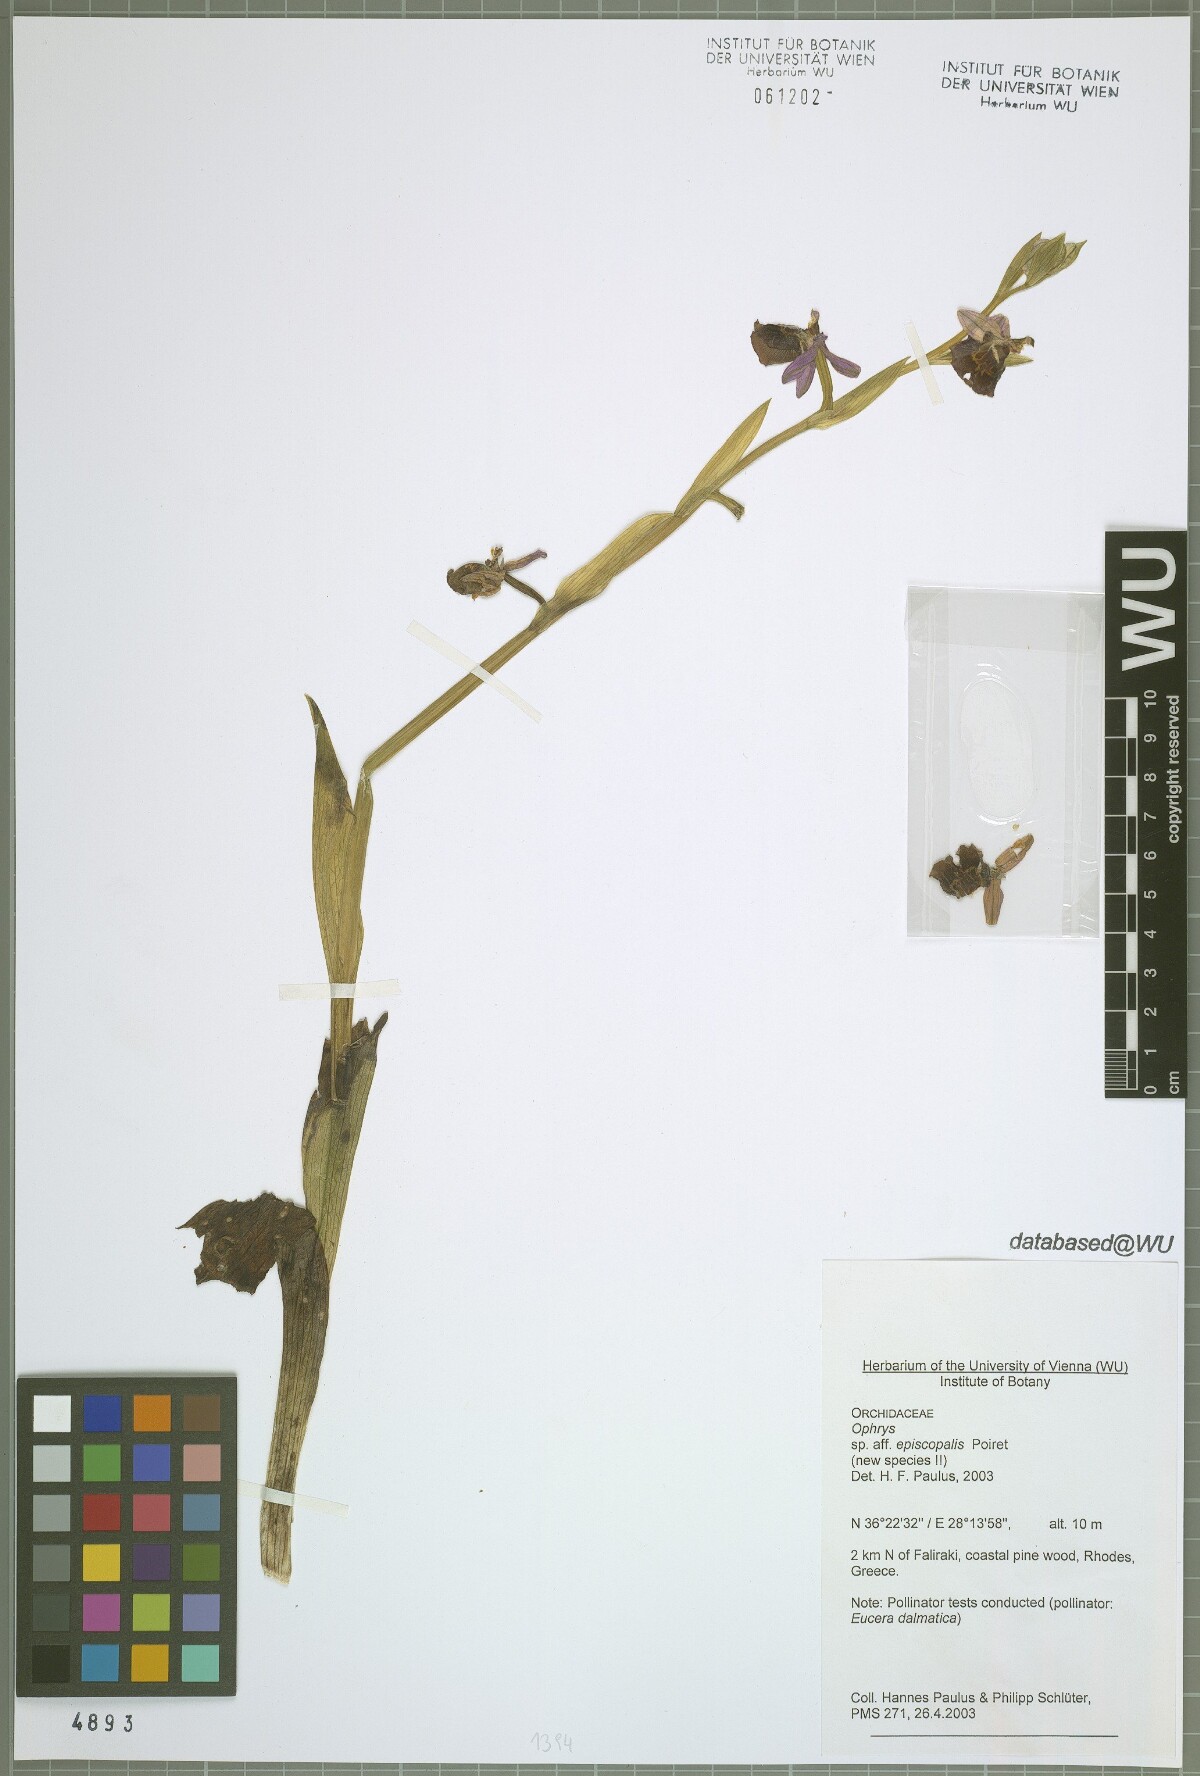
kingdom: Plantae
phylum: Tracheophyta
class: Liliopsida
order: Asparagales
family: Orchidaceae
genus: Ophrys
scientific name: Ophrys holosericea
